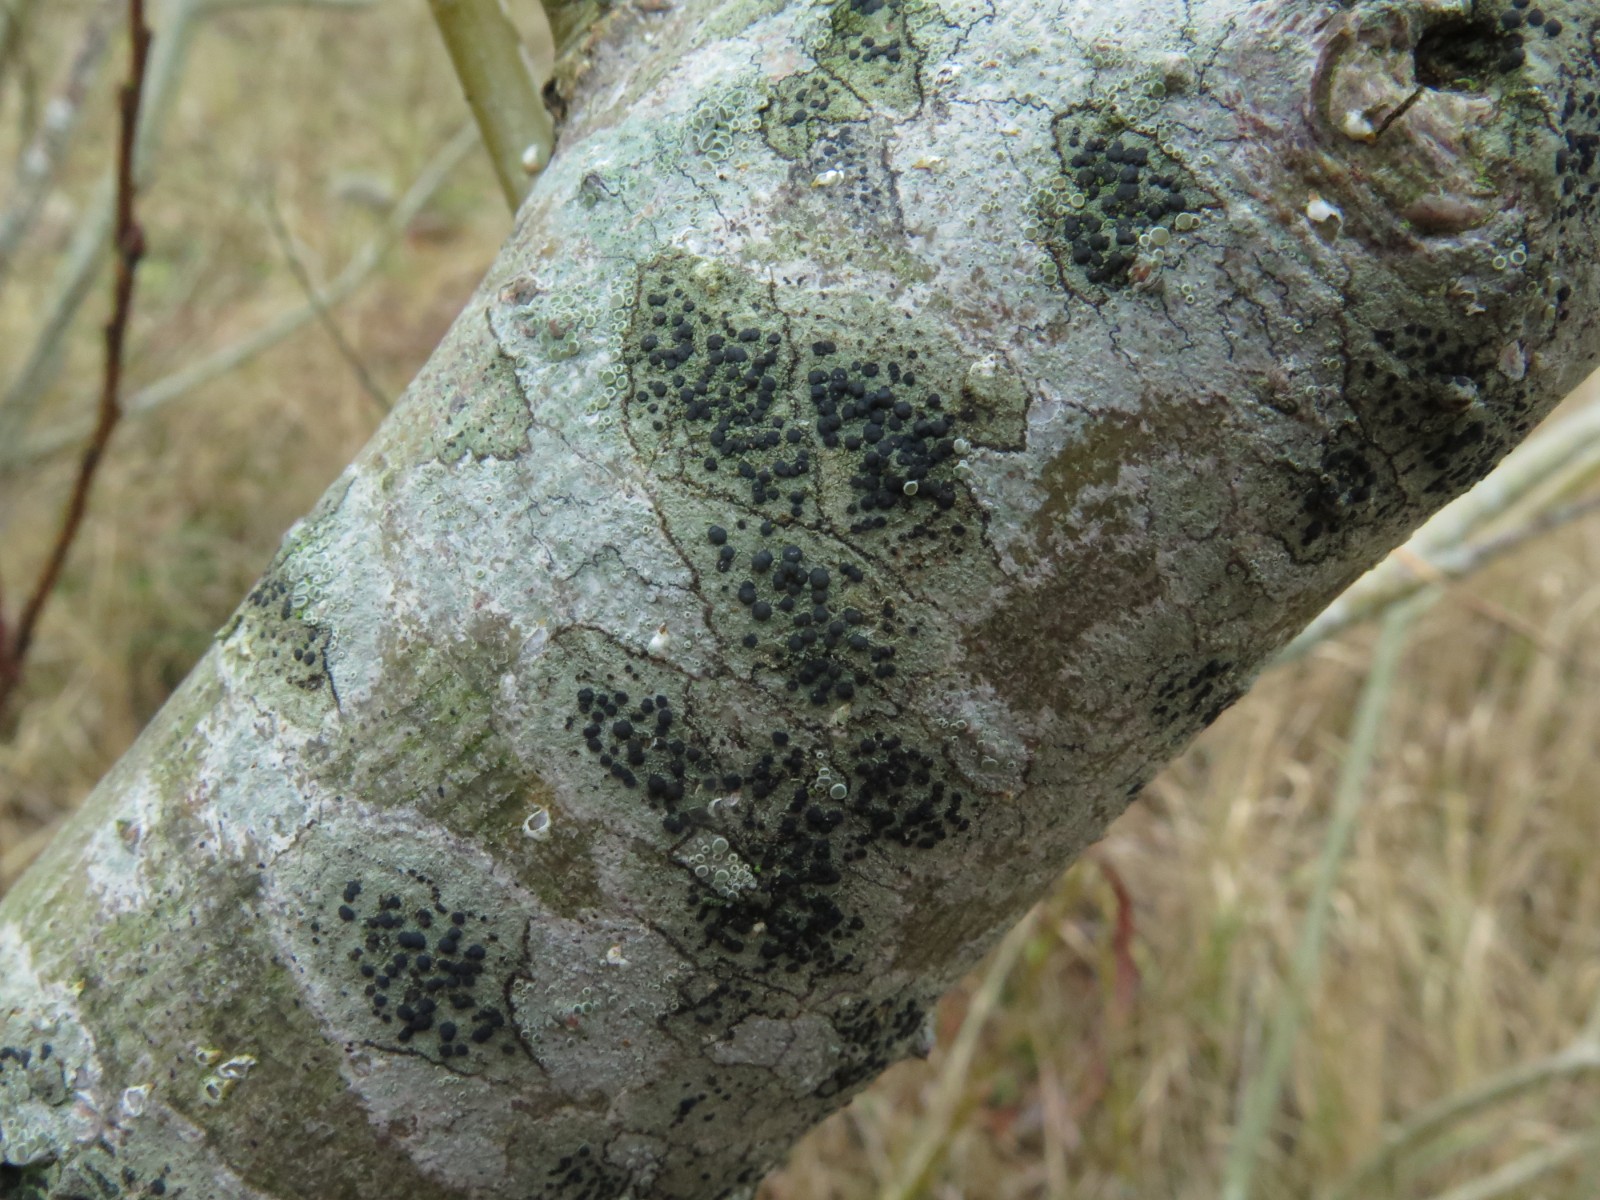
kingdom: Fungi
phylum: Ascomycota
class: Lecanoromycetes
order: Lecanorales
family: Lecanoraceae
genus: Lecidella
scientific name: Lecidella elaeochroma
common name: grågrøn skivelav
